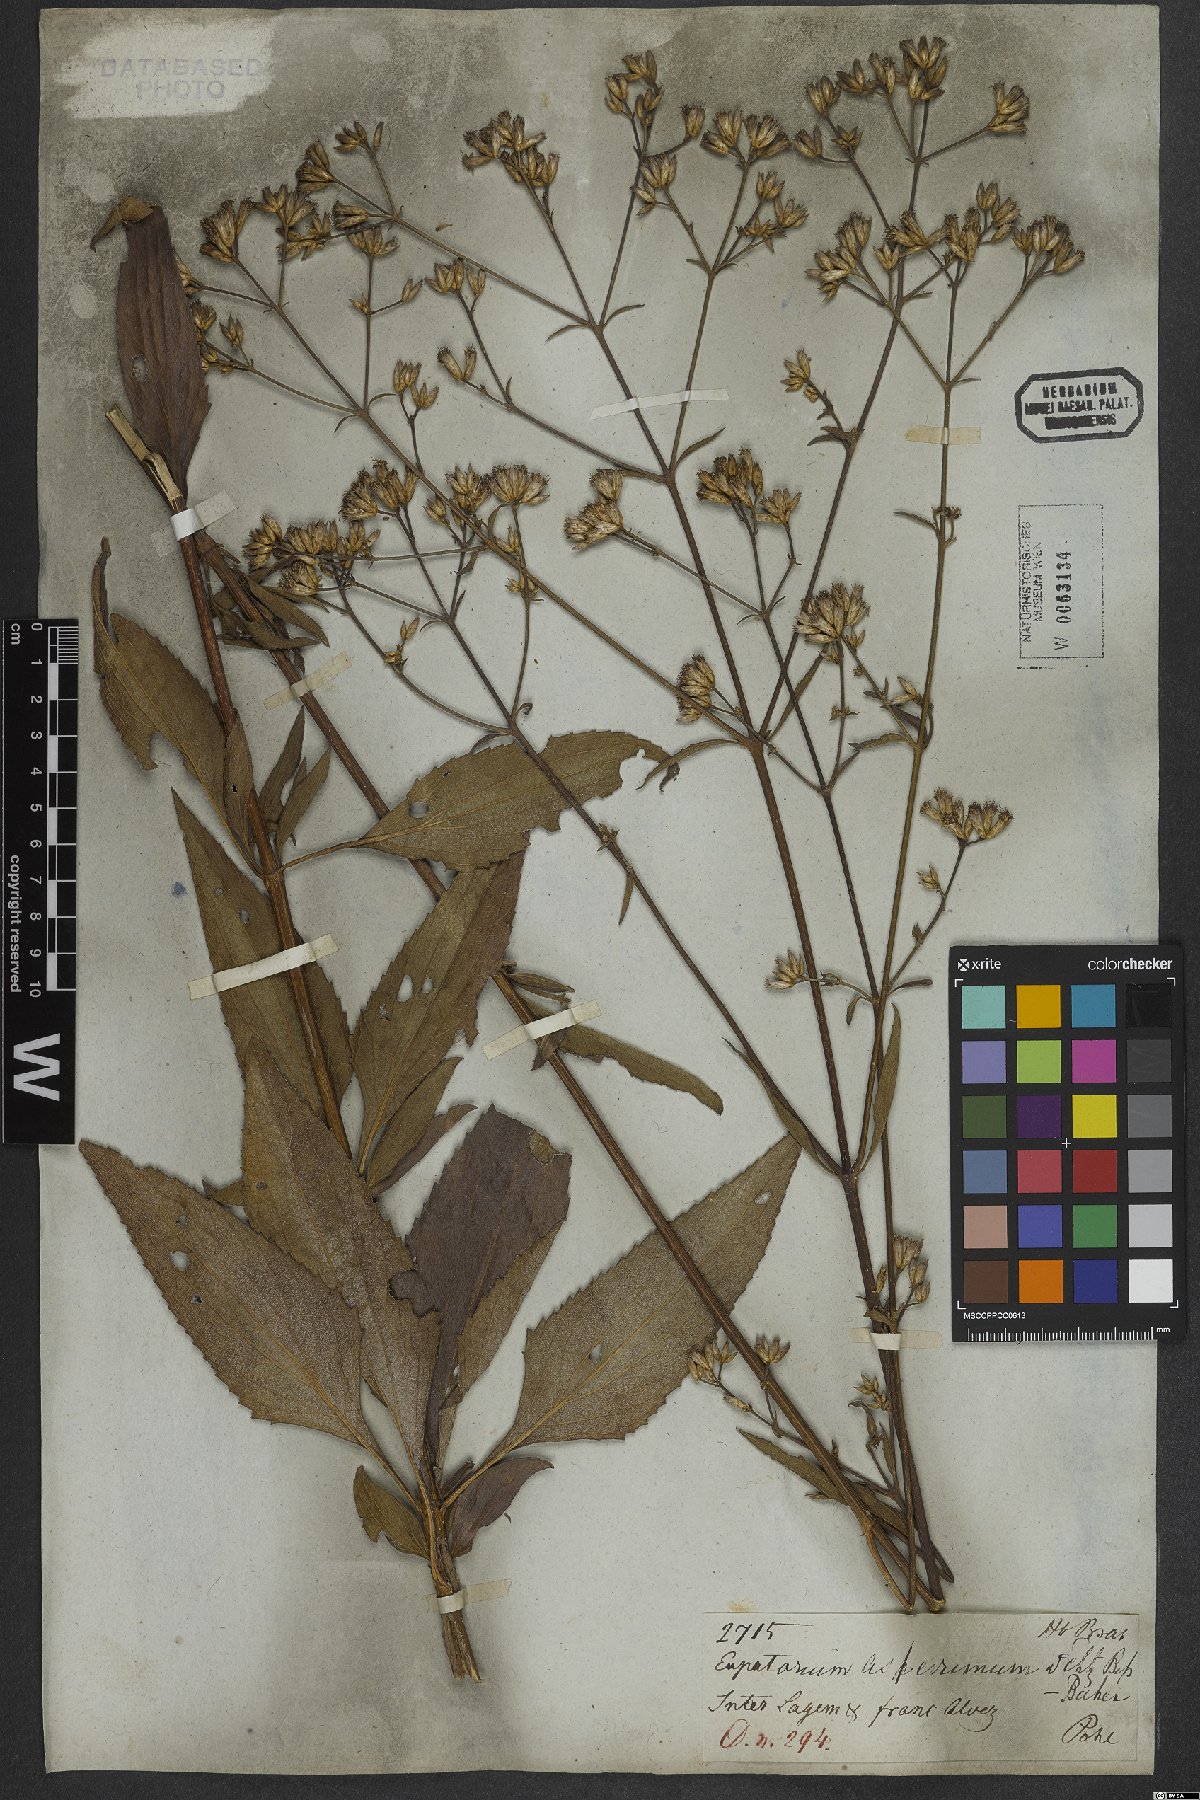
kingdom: Plantae
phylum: Tracheophyta
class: Magnoliopsida
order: Asterales
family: Asteraceae
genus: Chromolaena
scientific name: Chromolaena asperrima
